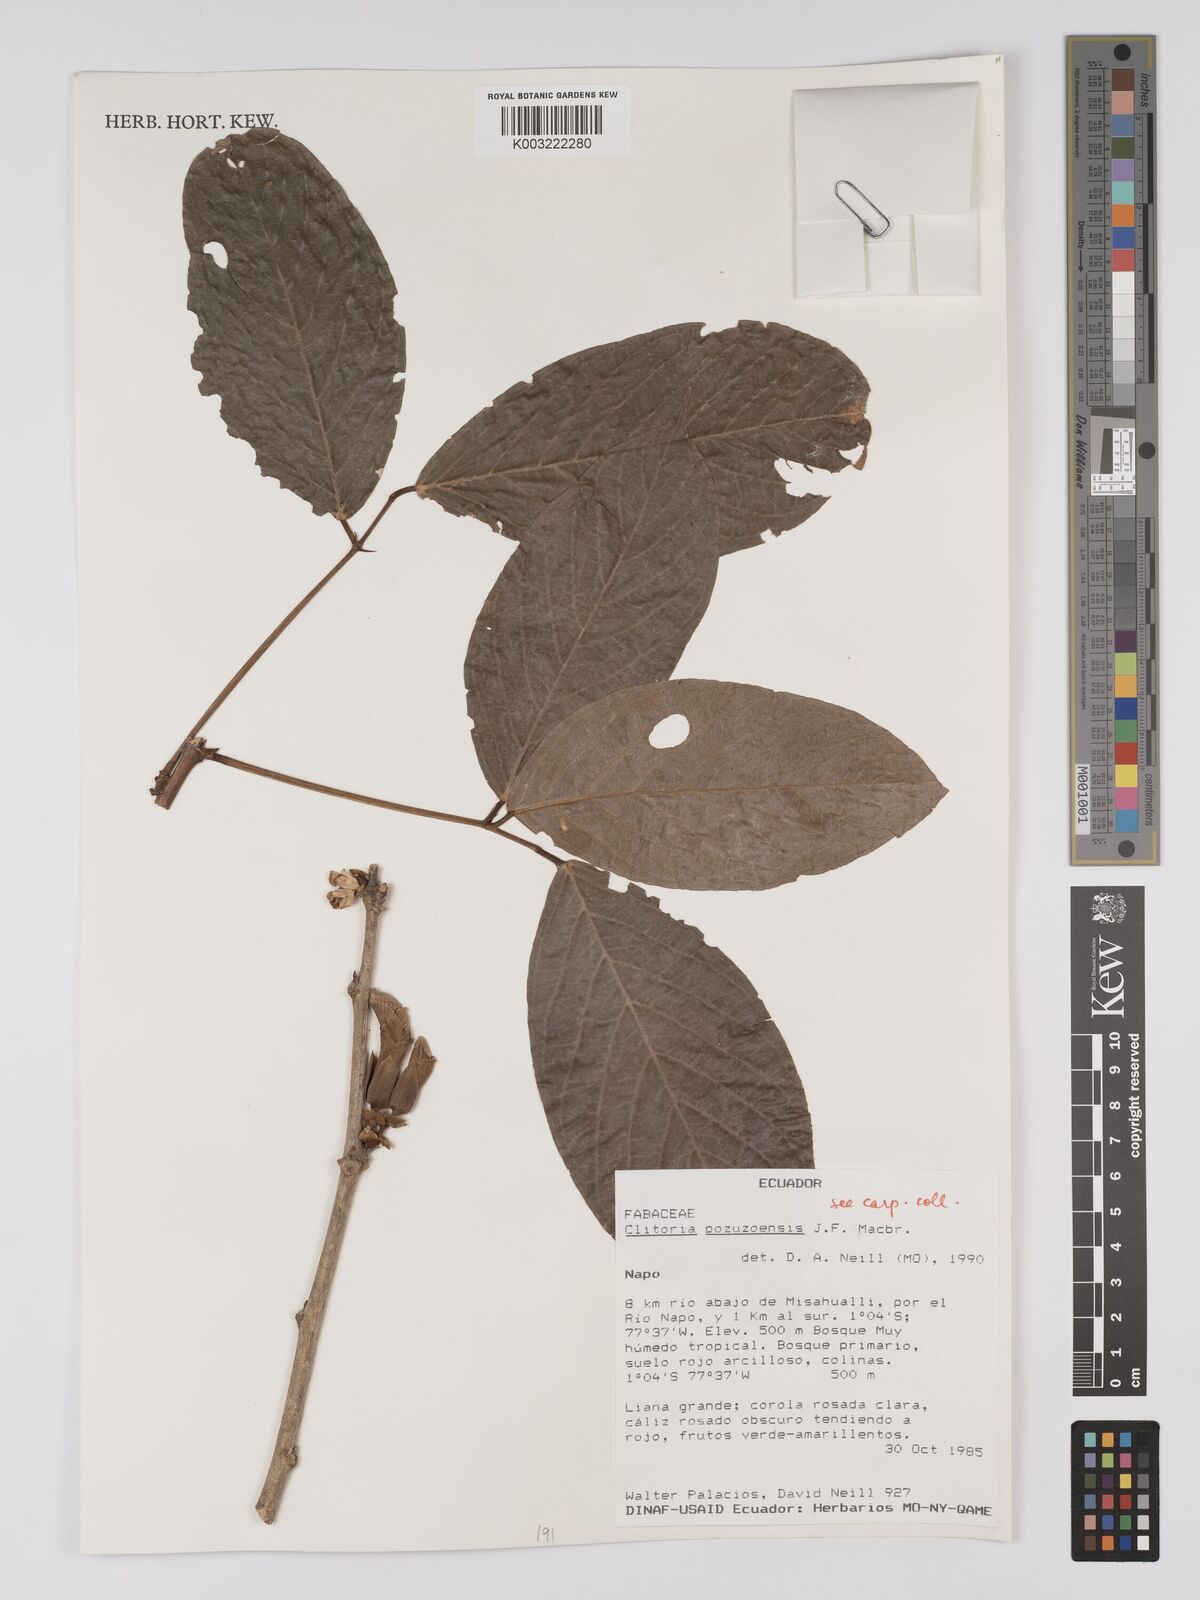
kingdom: Plantae
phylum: Tracheophyta
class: Magnoliopsida
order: Fabales
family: Fabaceae
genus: Clitoria
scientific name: Clitoria pozuzoensis
